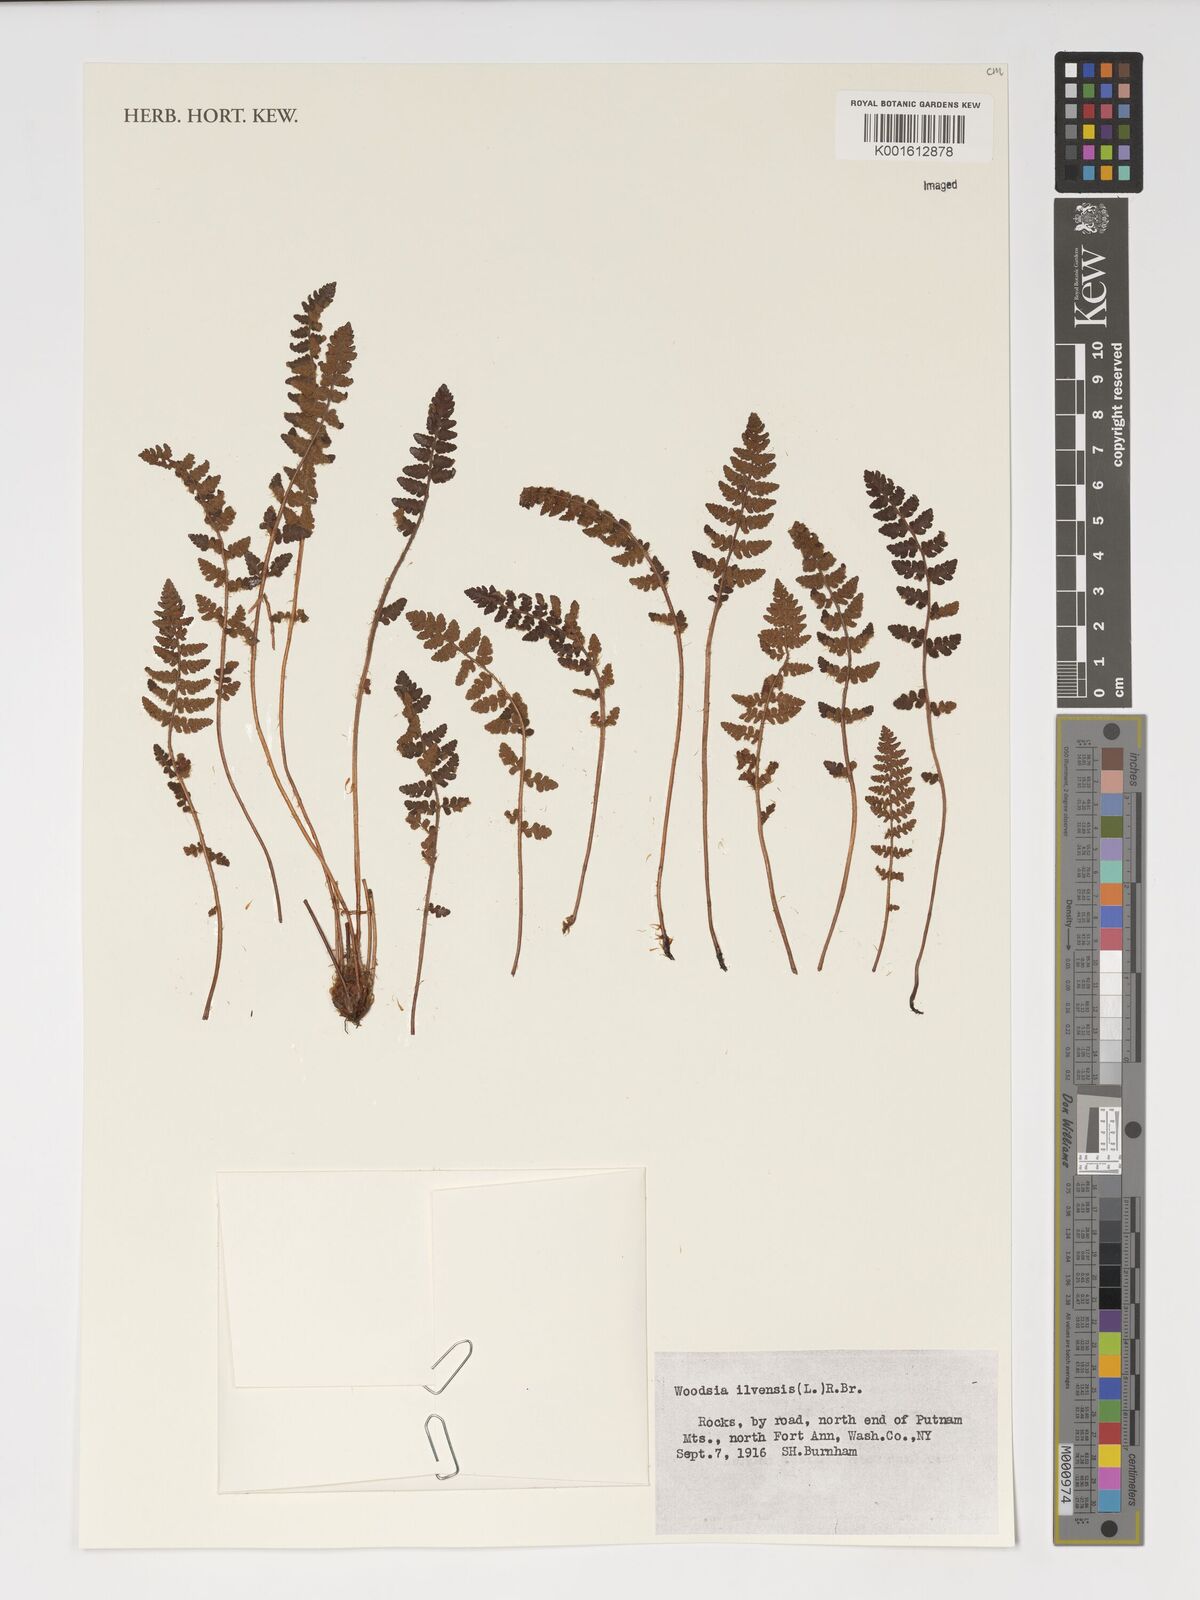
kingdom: Plantae
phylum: Tracheophyta
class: Polypodiopsida
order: Polypodiales
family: Woodsiaceae
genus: Woodsia
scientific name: Woodsia ilvensis
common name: Fragrant woodsia
